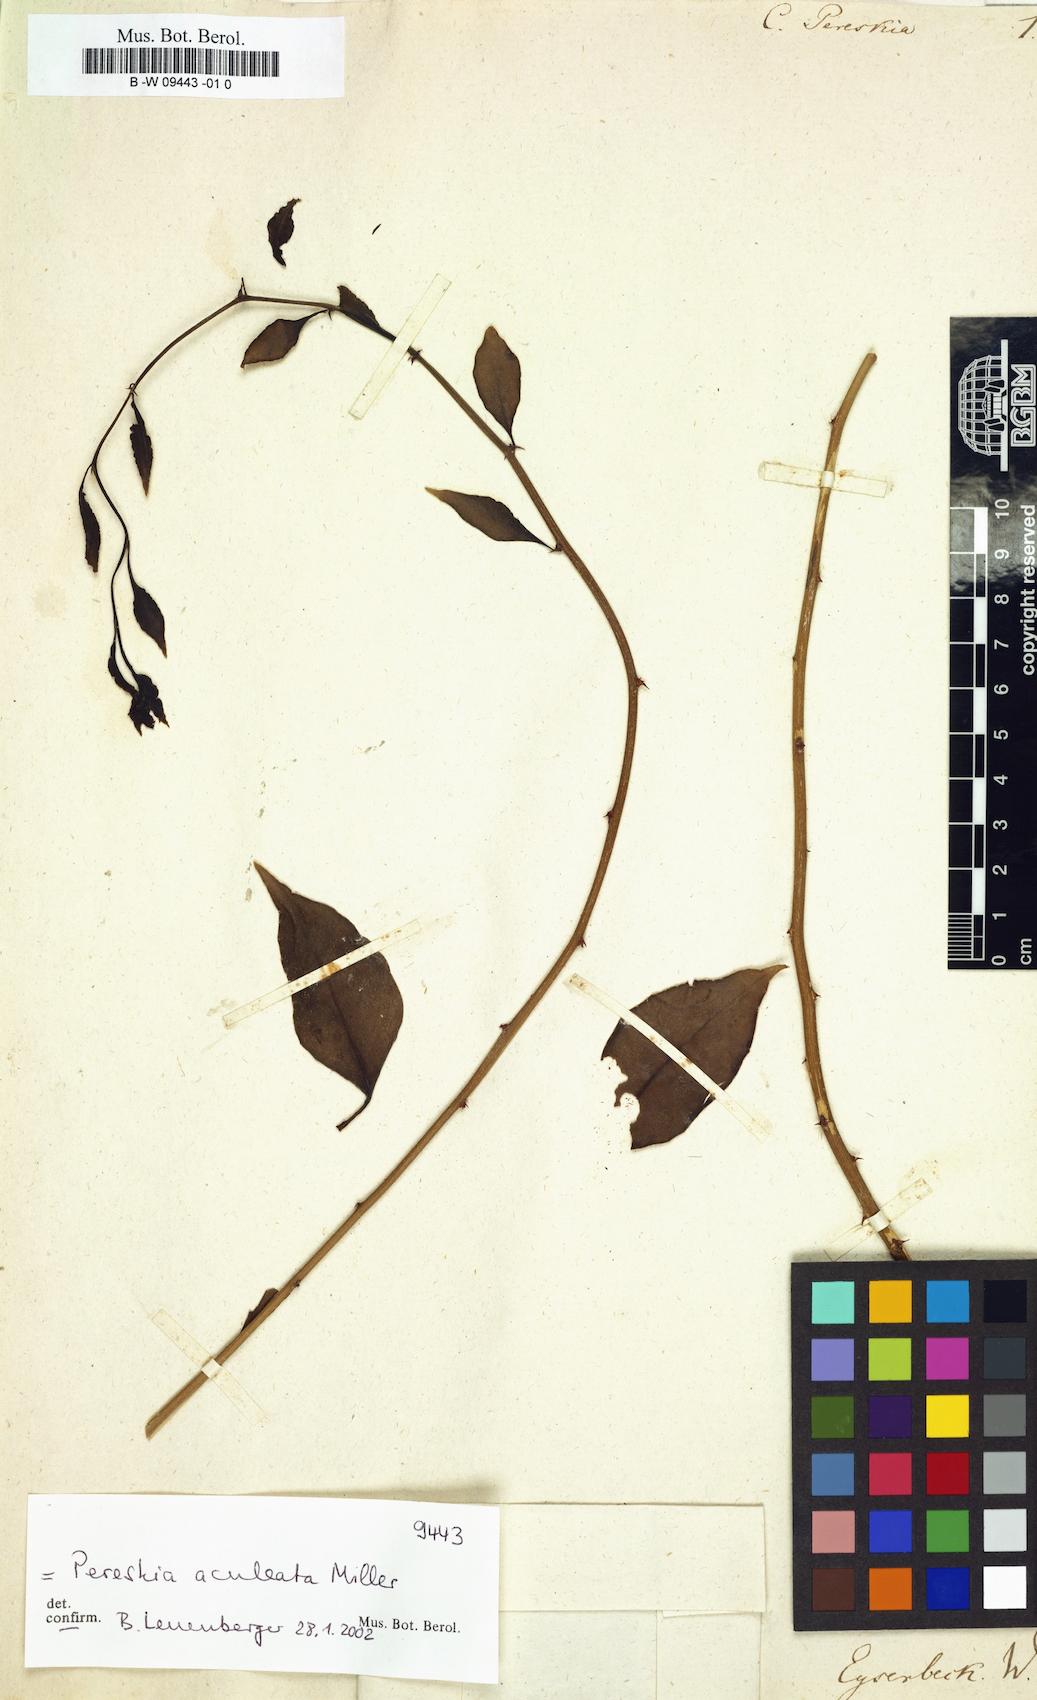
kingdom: Plantae
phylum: Tracheophyta
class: Magnoliopsida
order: Caryophyllales
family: Cactaceae
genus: Pereskia
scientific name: Pereskia aculeata
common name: Barbados gooseberry
